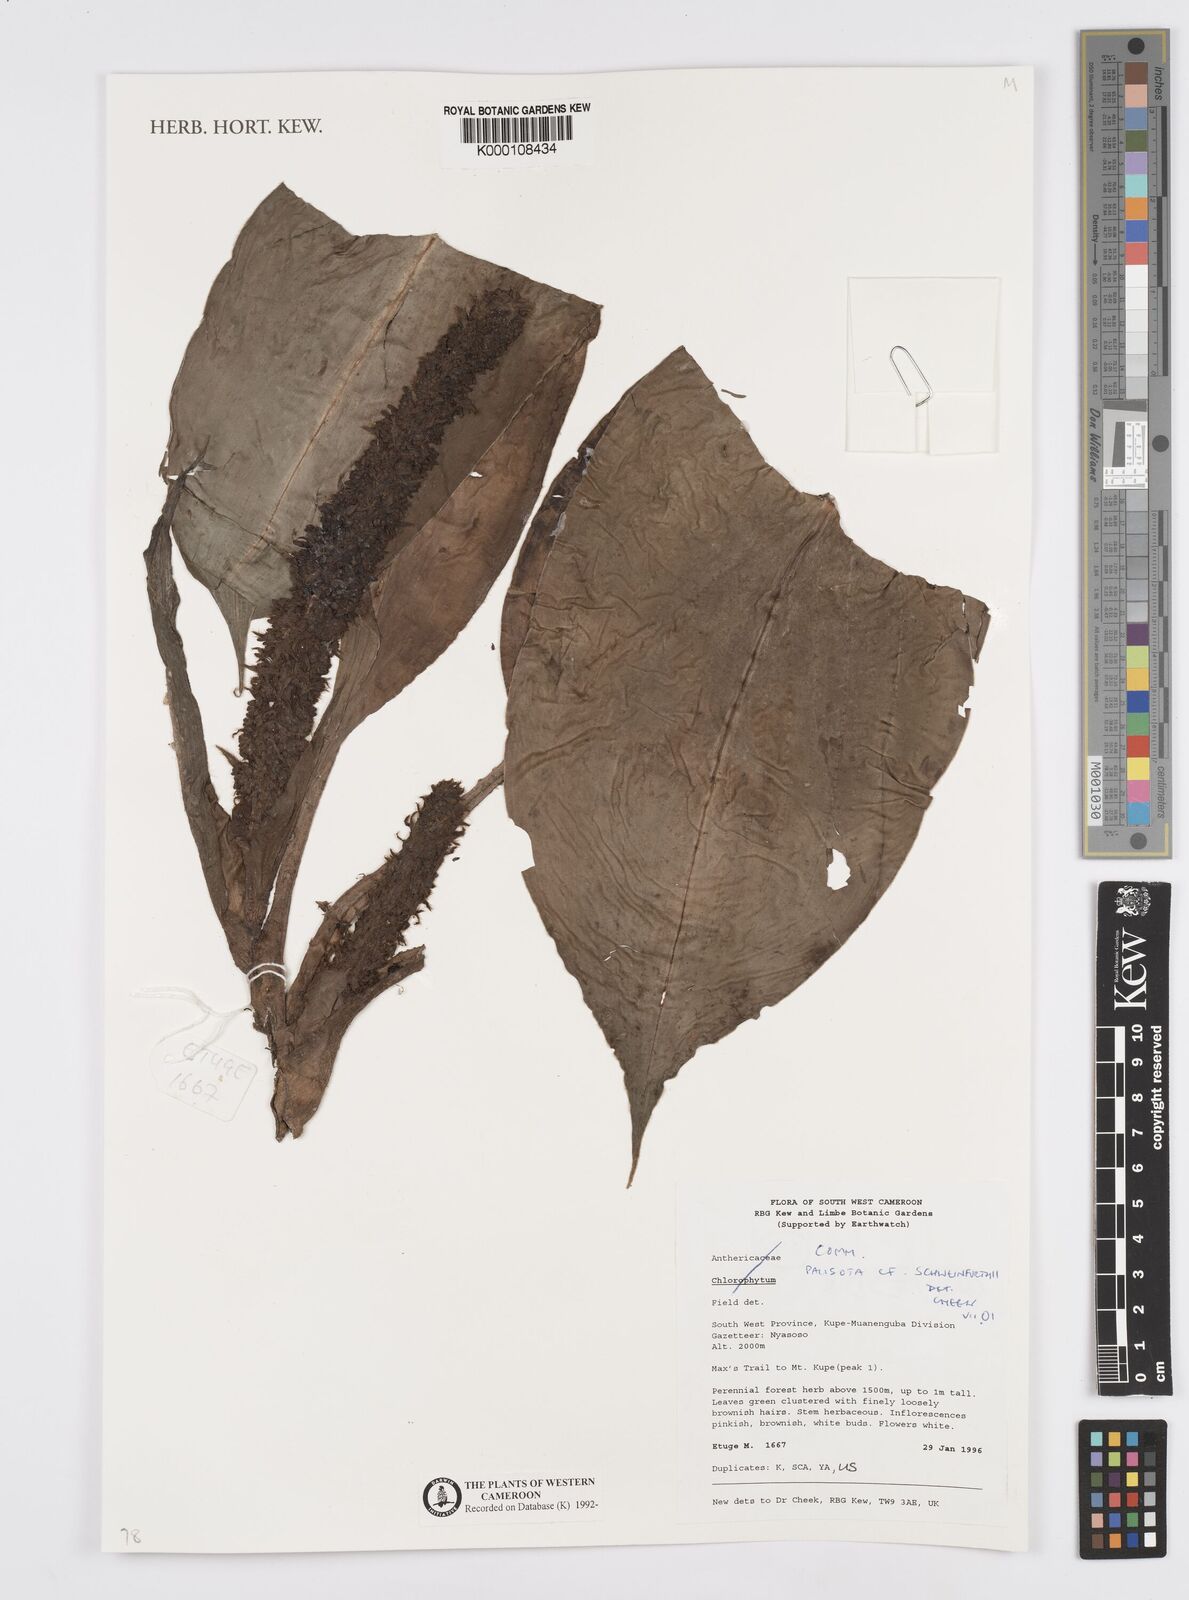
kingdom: Plantae
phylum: Tracheophyta
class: Liliopsida
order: Commelinales
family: Commelinaceae
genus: Palisota
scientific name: Palisota schweinfurthii
